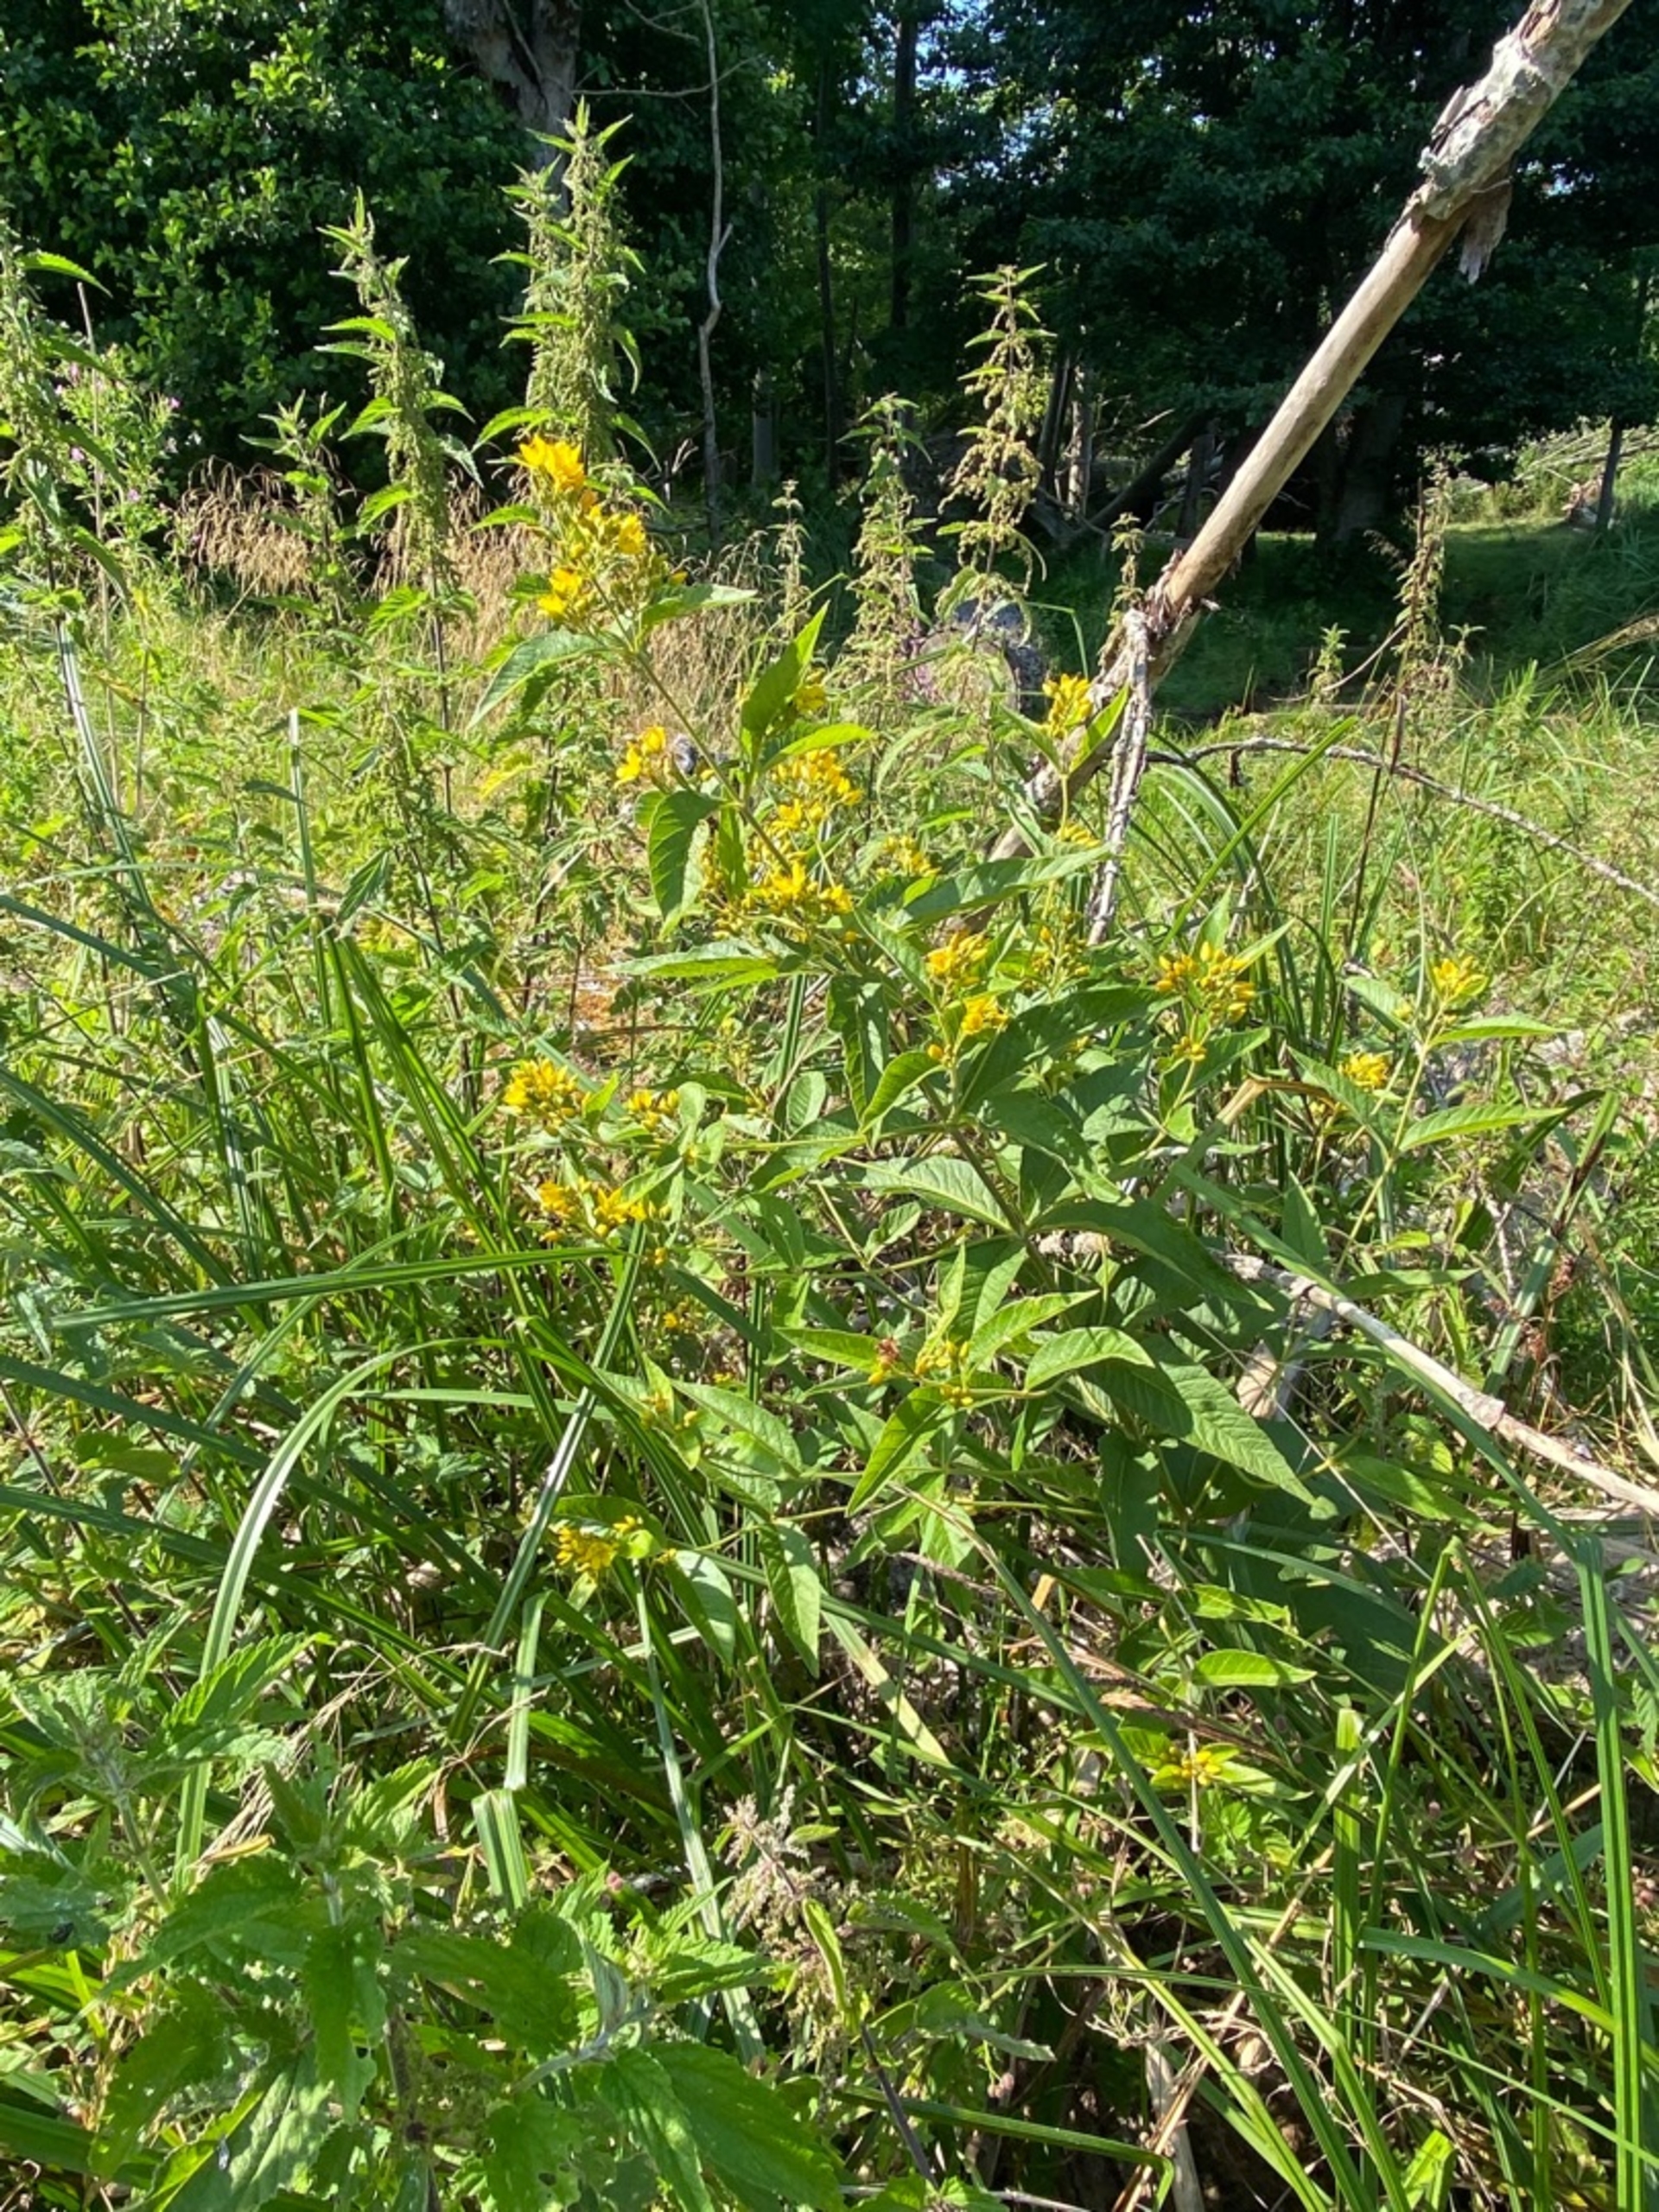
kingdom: Plantae
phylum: Tracheophyta
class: Magnoliopsida
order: Ericales
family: Primulaceae
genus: Lysimachia
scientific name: Lysimachia vulgaris
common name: Almindelig fredløs
